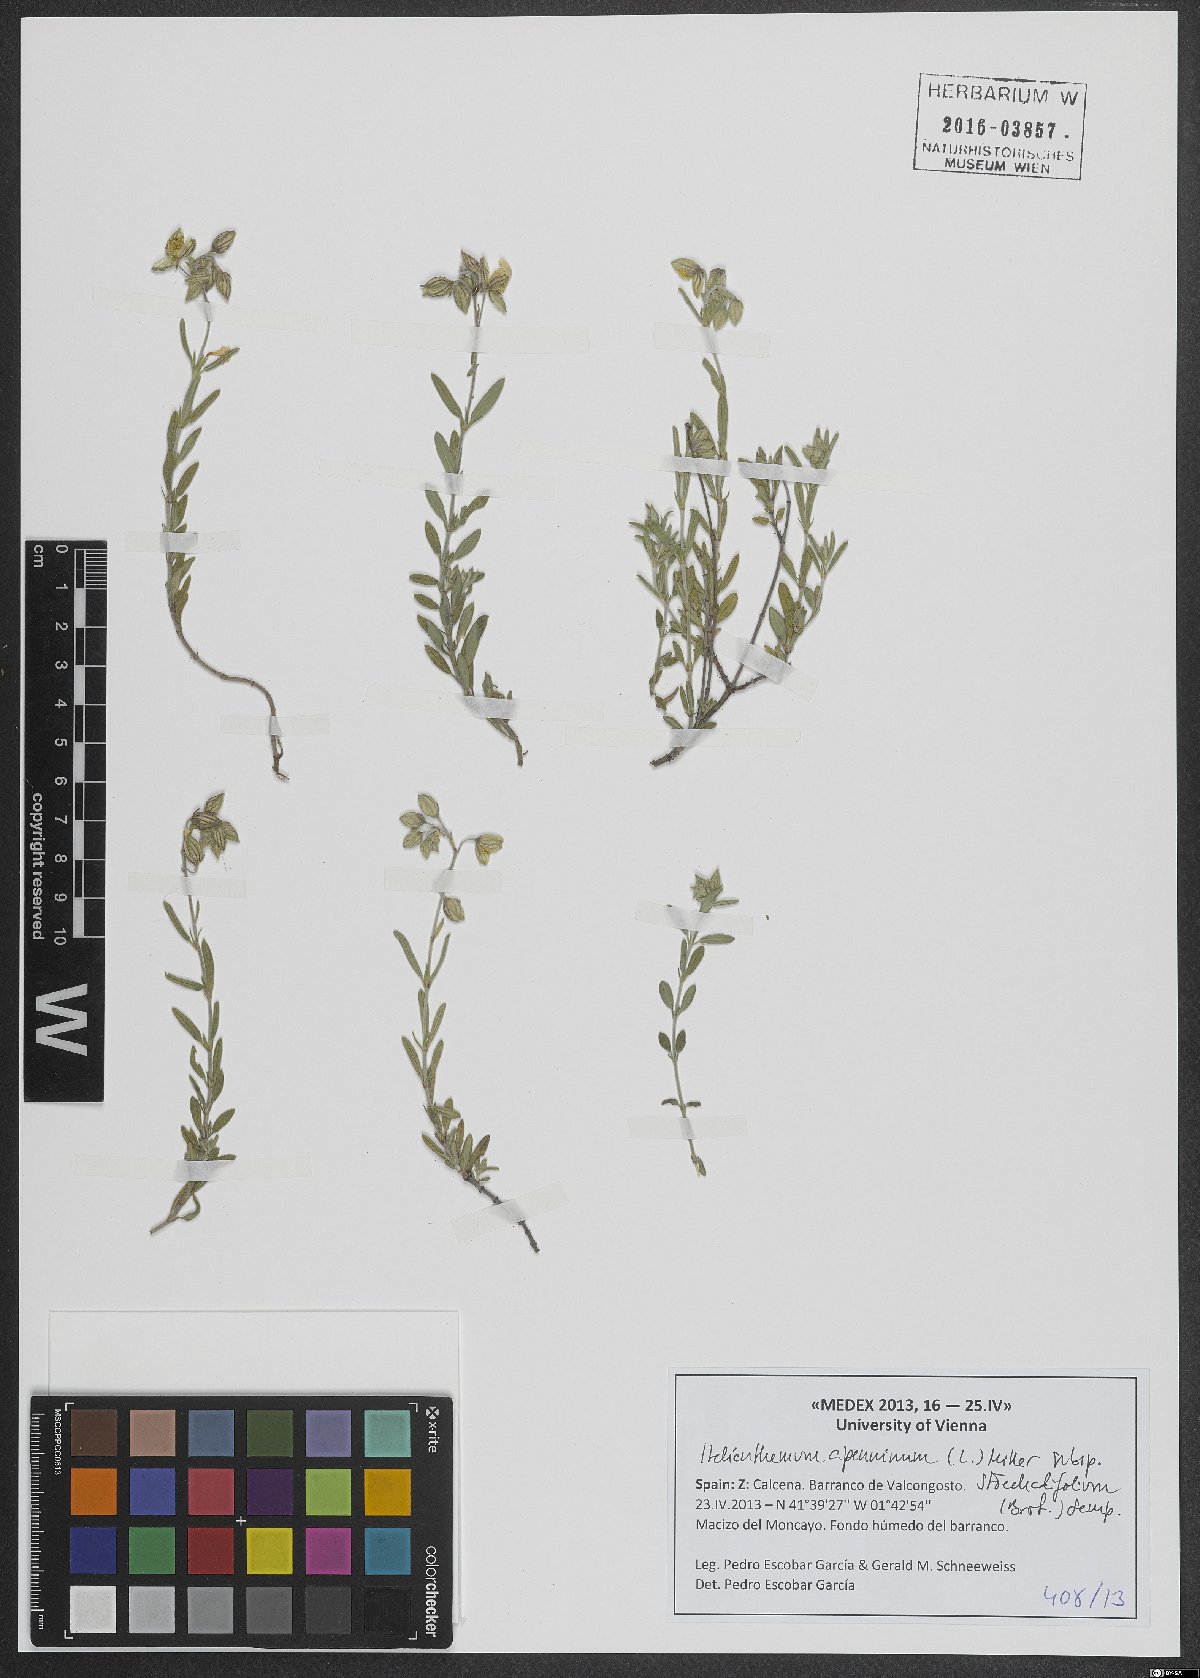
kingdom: Plantae
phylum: Tracheophyta
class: Magnoliopsida
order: Malvales
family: Cistaceae
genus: Helianthemum
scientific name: Helianthemum apenninum
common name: White rock-rose
